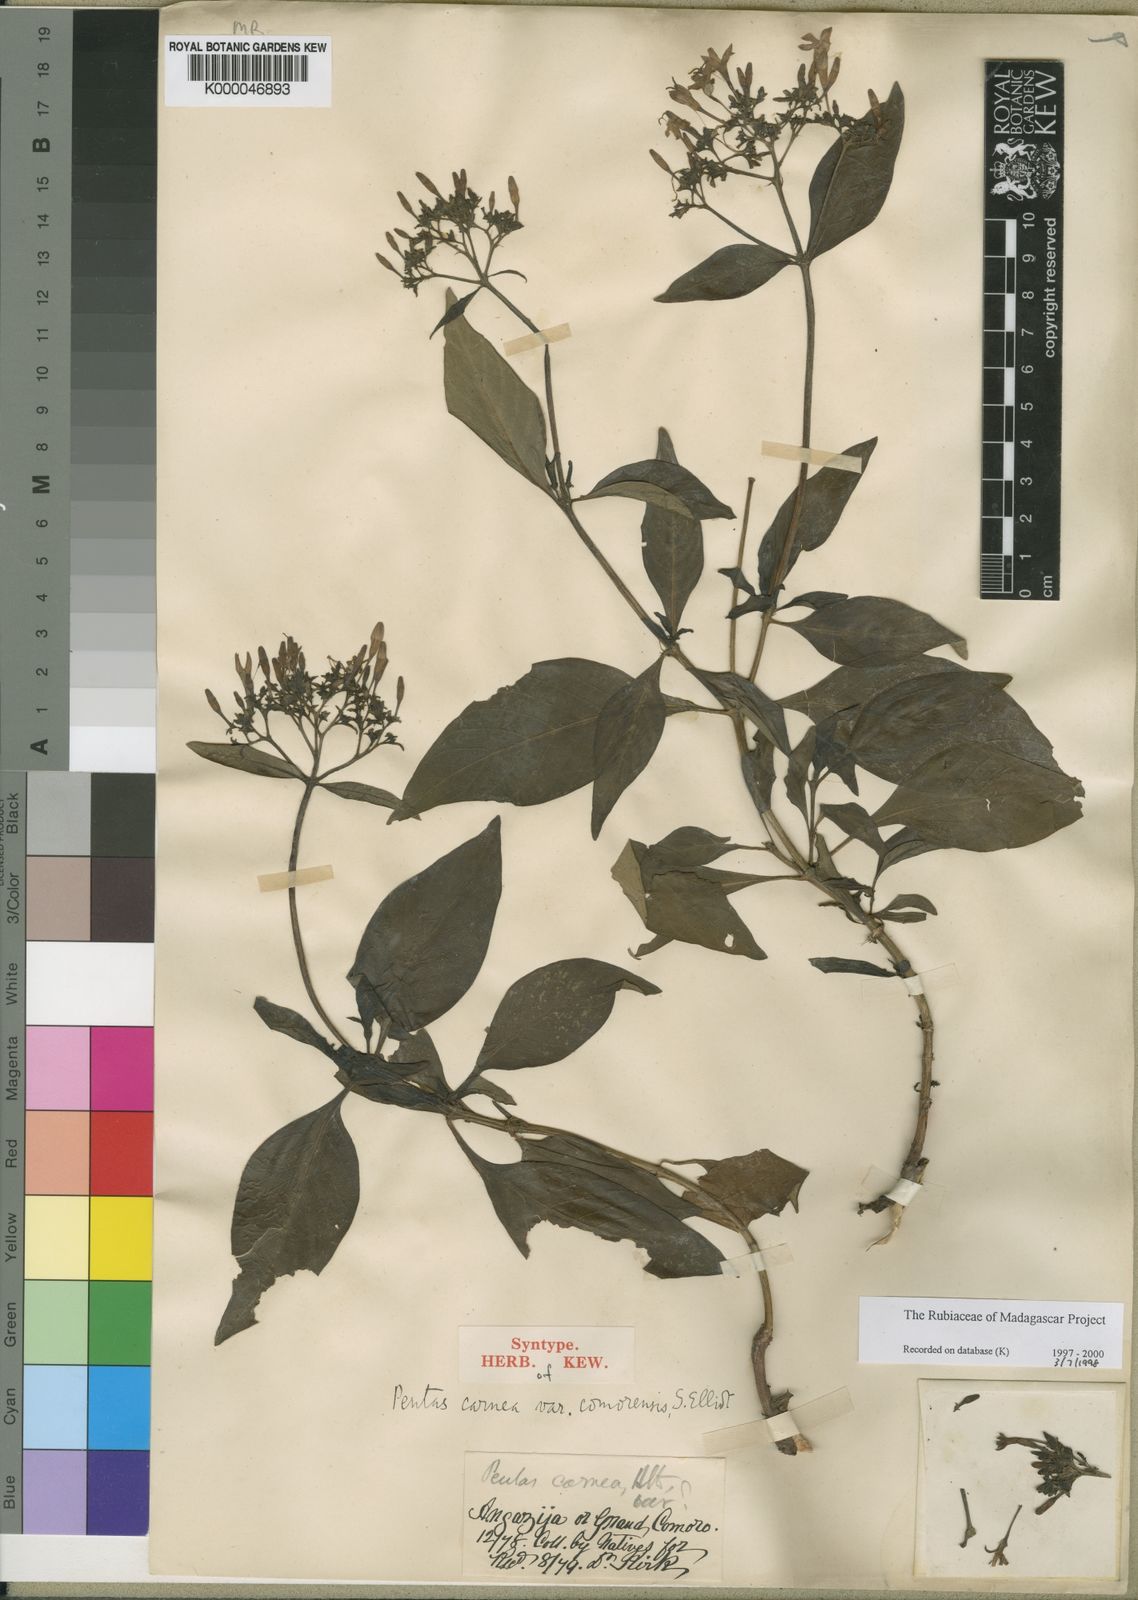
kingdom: Plantae
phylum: Tracheophyta
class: Magnoliopsida
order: Gentianales
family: Rubiaceae
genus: Pentas
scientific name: Pentas lanceolata
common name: Egyptian starcluster
